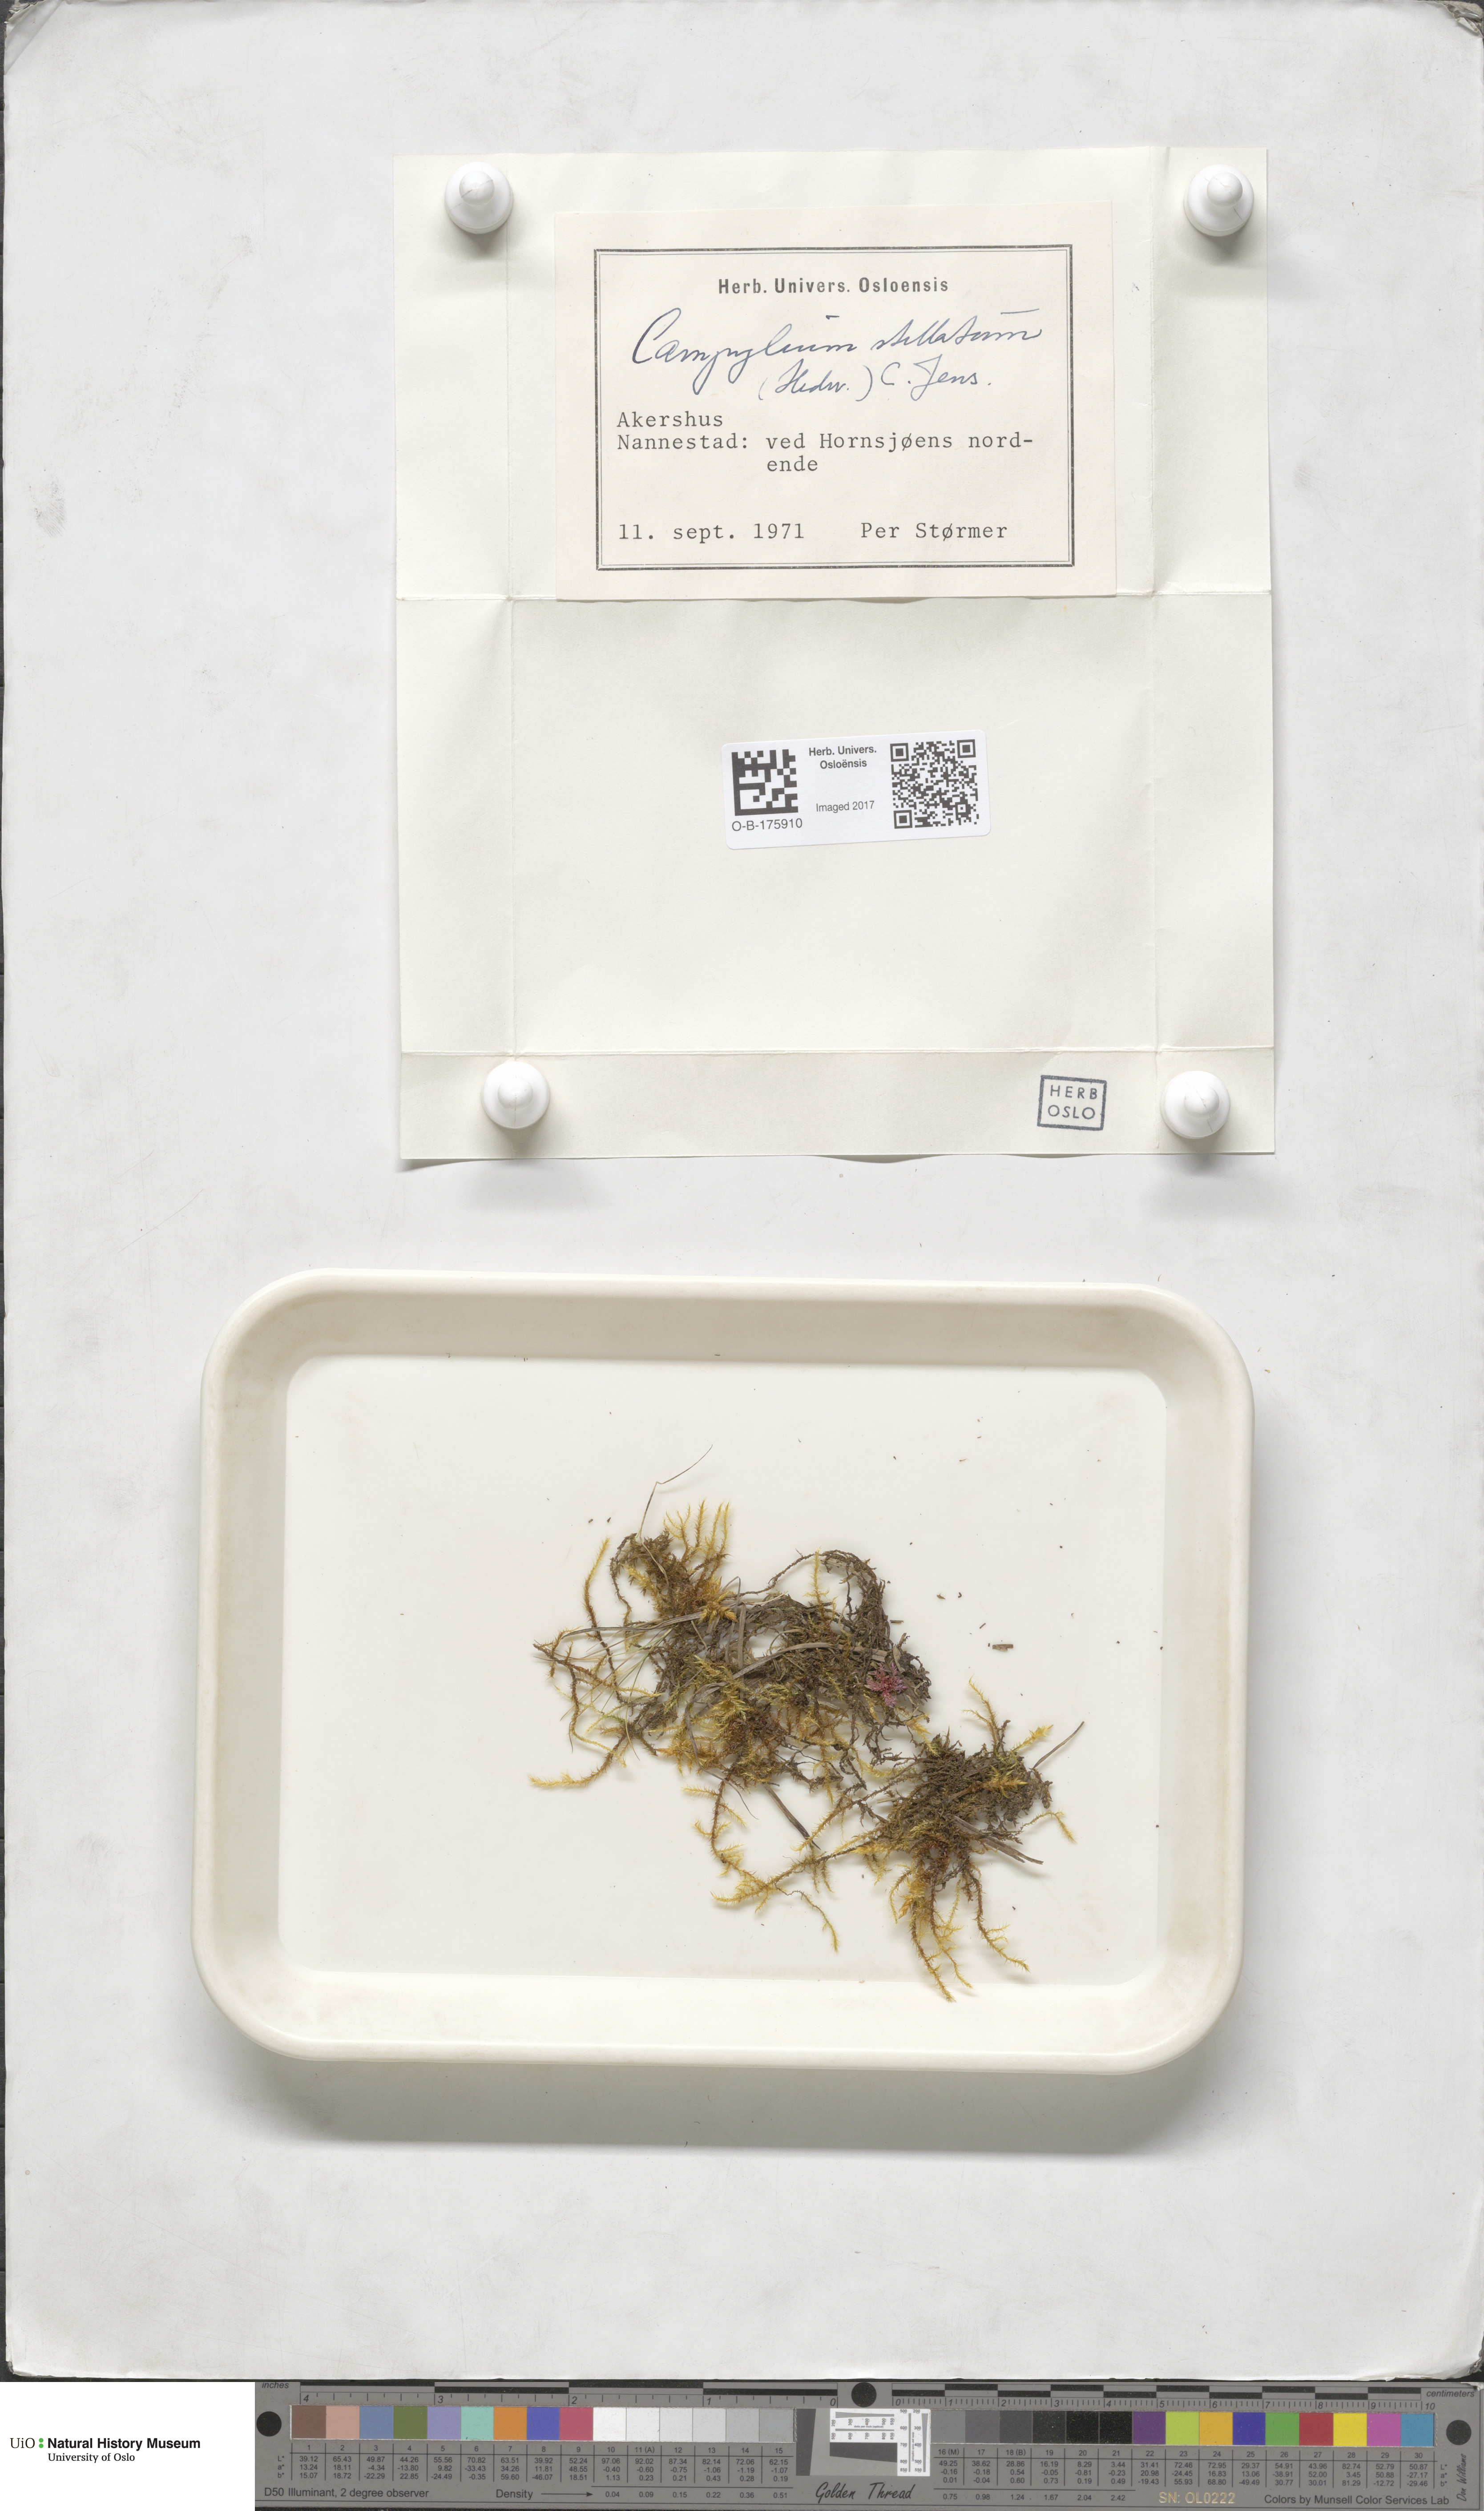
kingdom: Plantae
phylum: Bryophyta
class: Bryopsida
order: Hypnales
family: Amblystegiaceae
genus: Campylium
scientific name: Campylium stellatum
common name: Yellow starry fen moss
